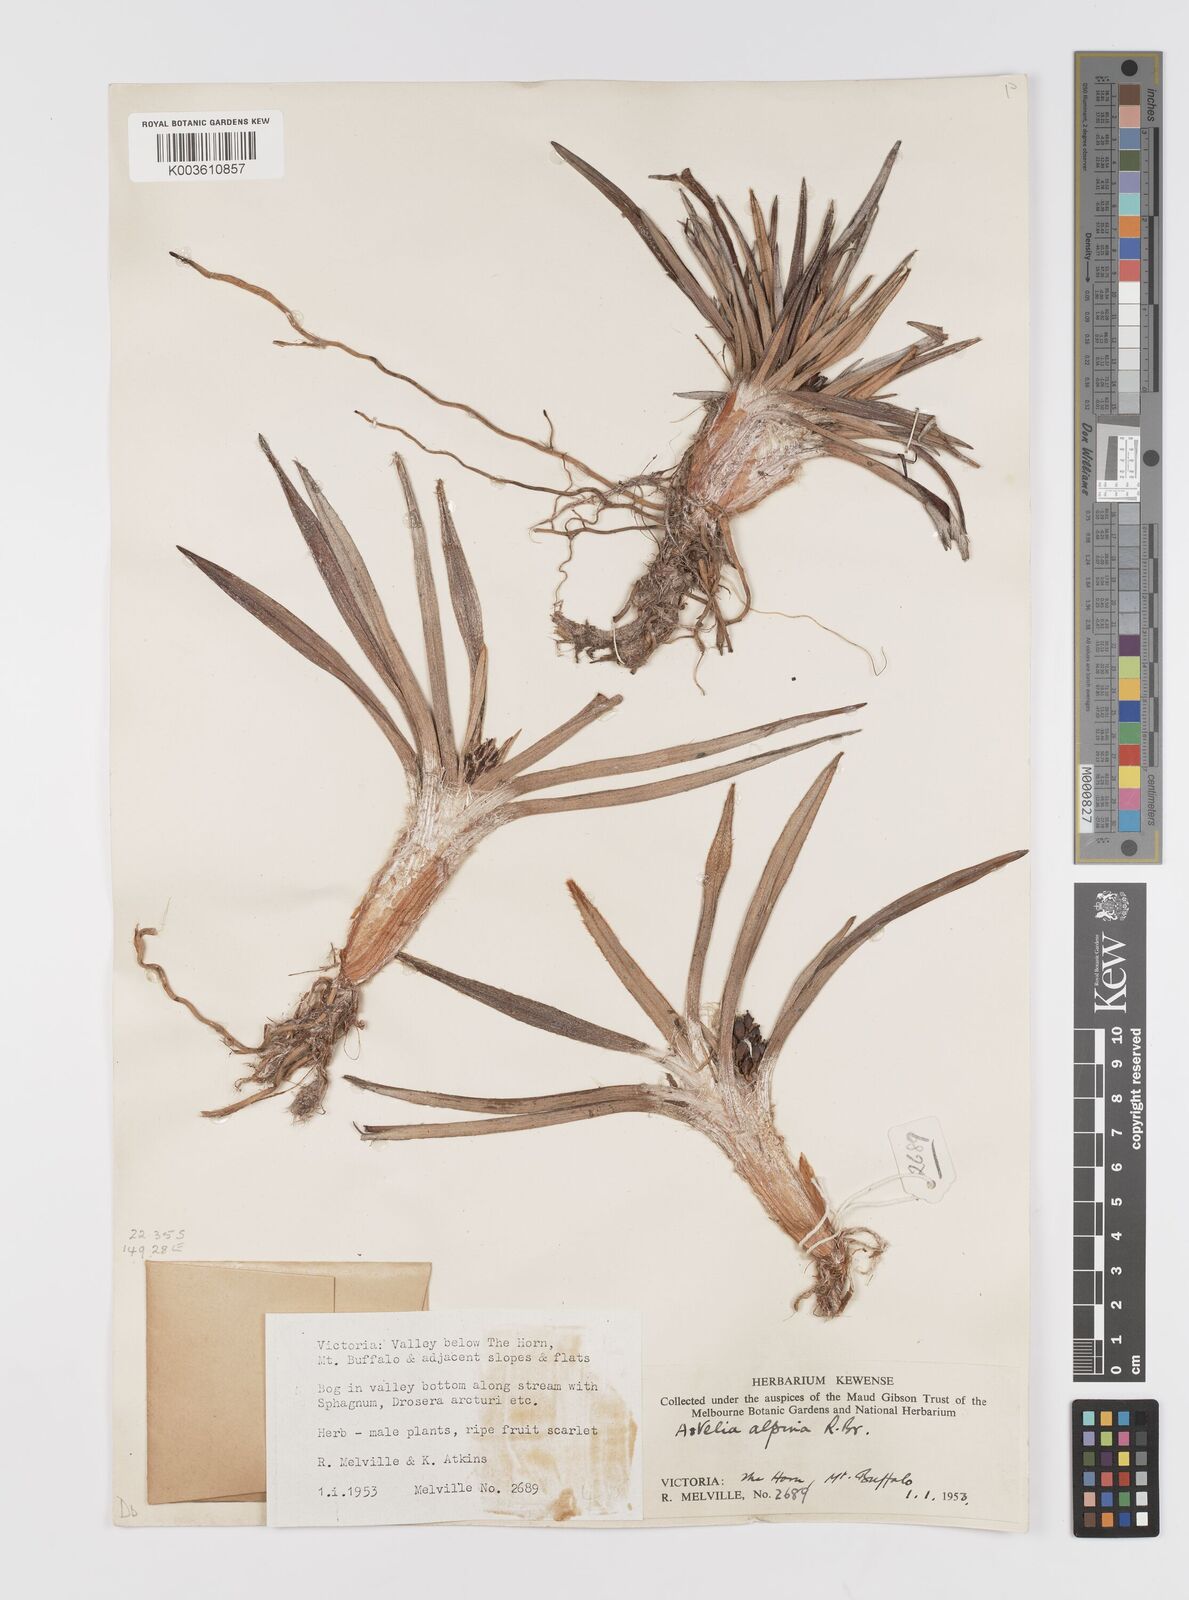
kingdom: Plantae
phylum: Tracheophyta
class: Liliopsida
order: Asparagales
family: Asteliaceae
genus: Astelia
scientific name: Astelia alpina
